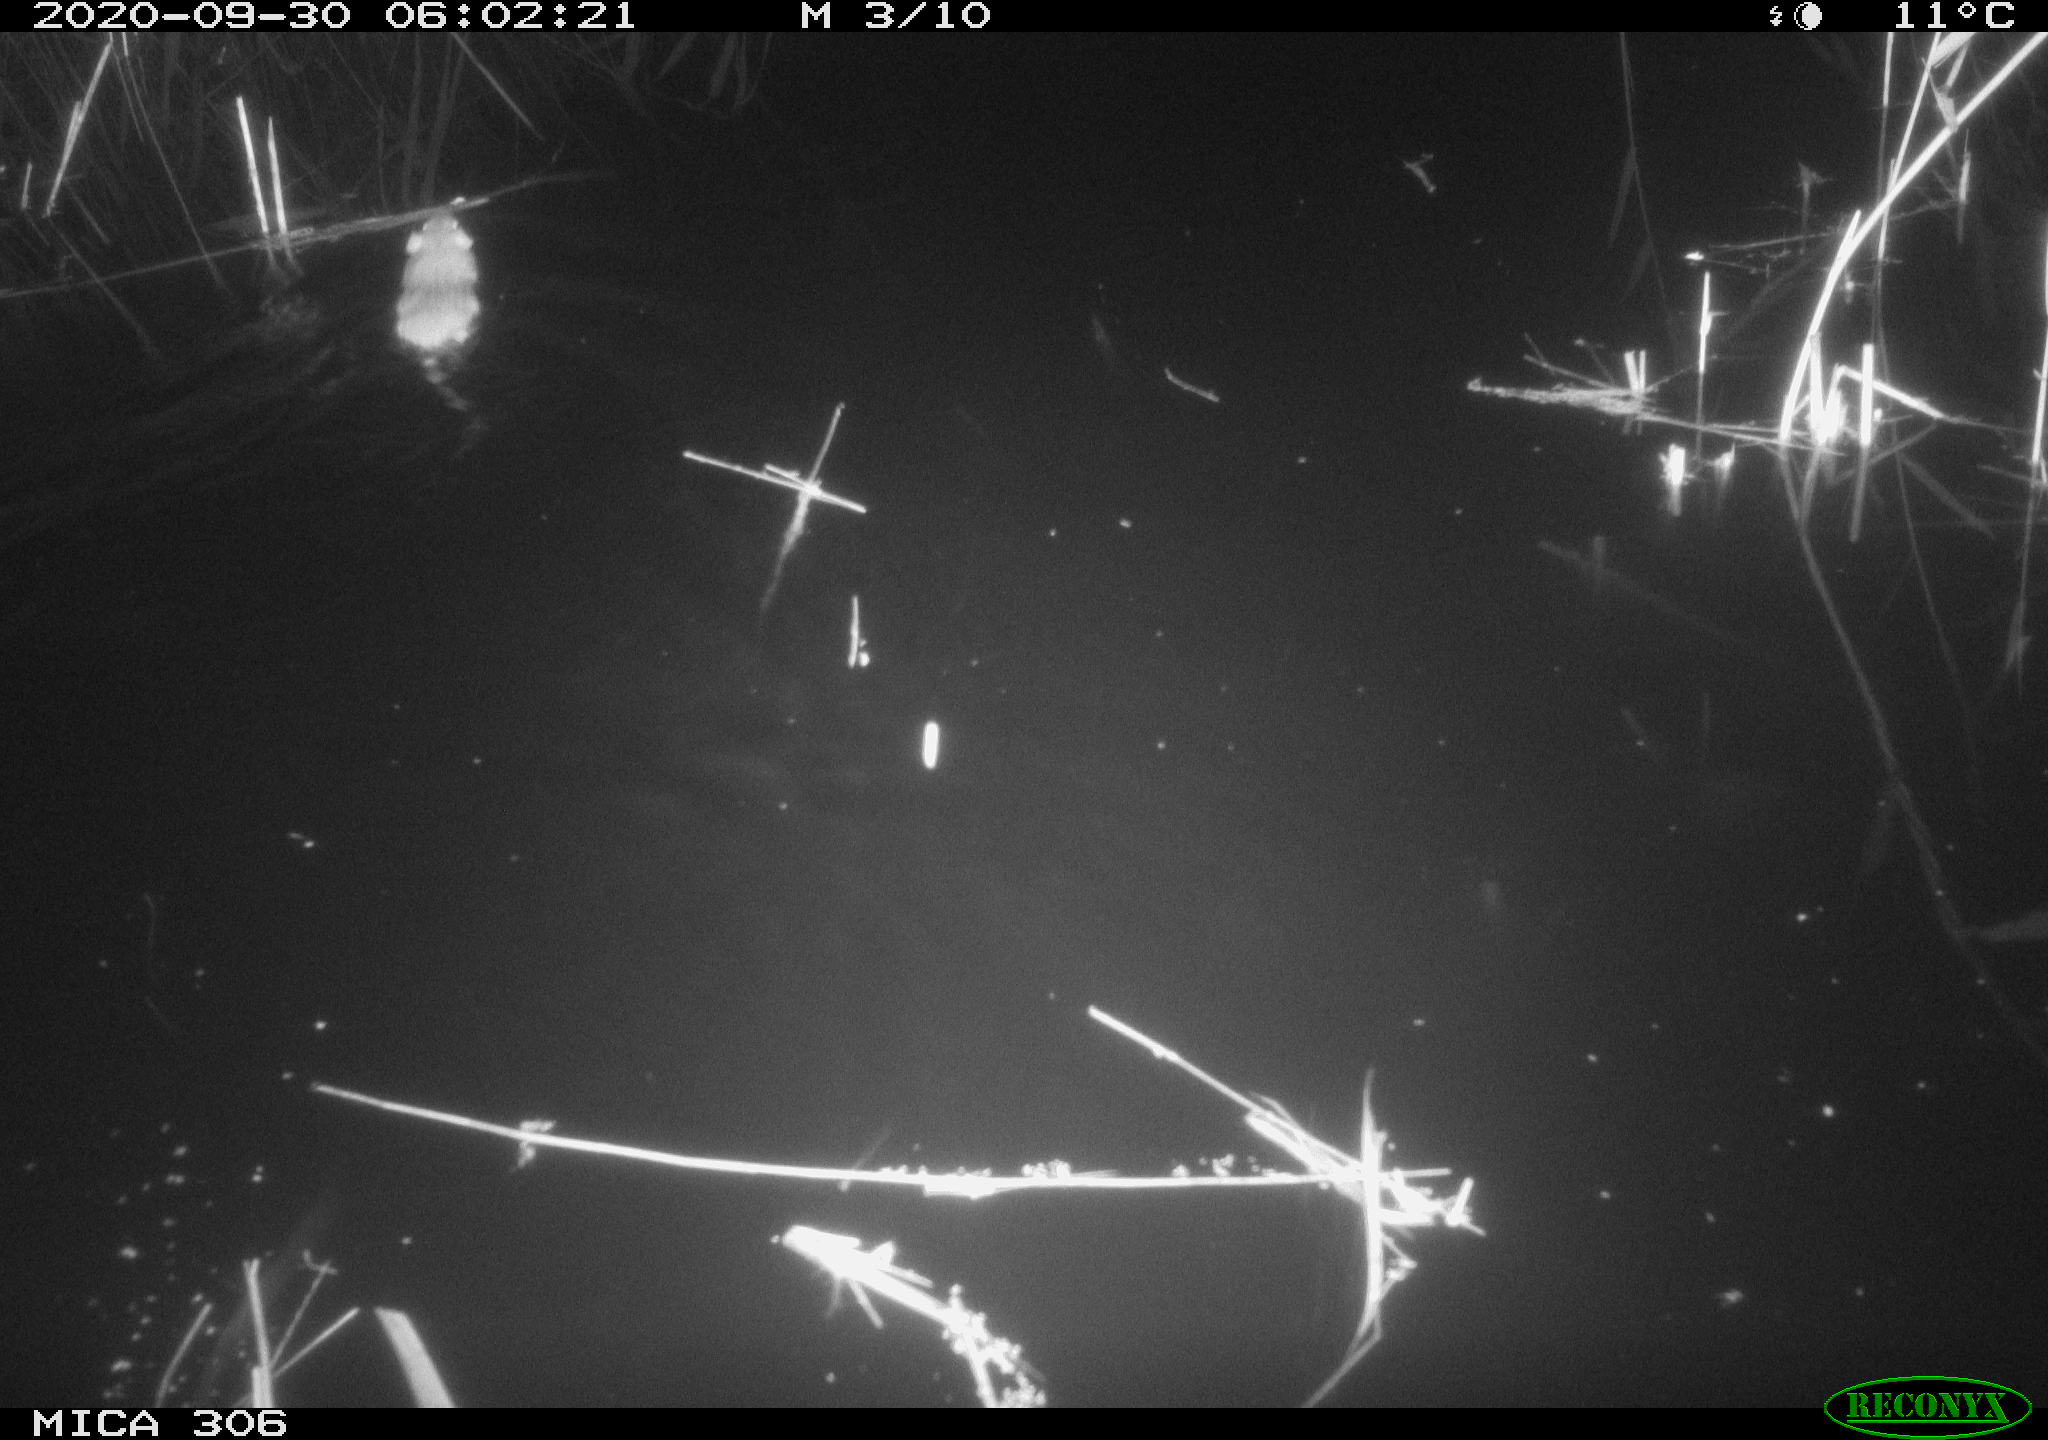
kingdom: Animalia
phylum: Chordata
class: Mammalia
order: Rodentia
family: Muridae
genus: Rattus
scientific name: Rattus norvegicus
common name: Brown rat
